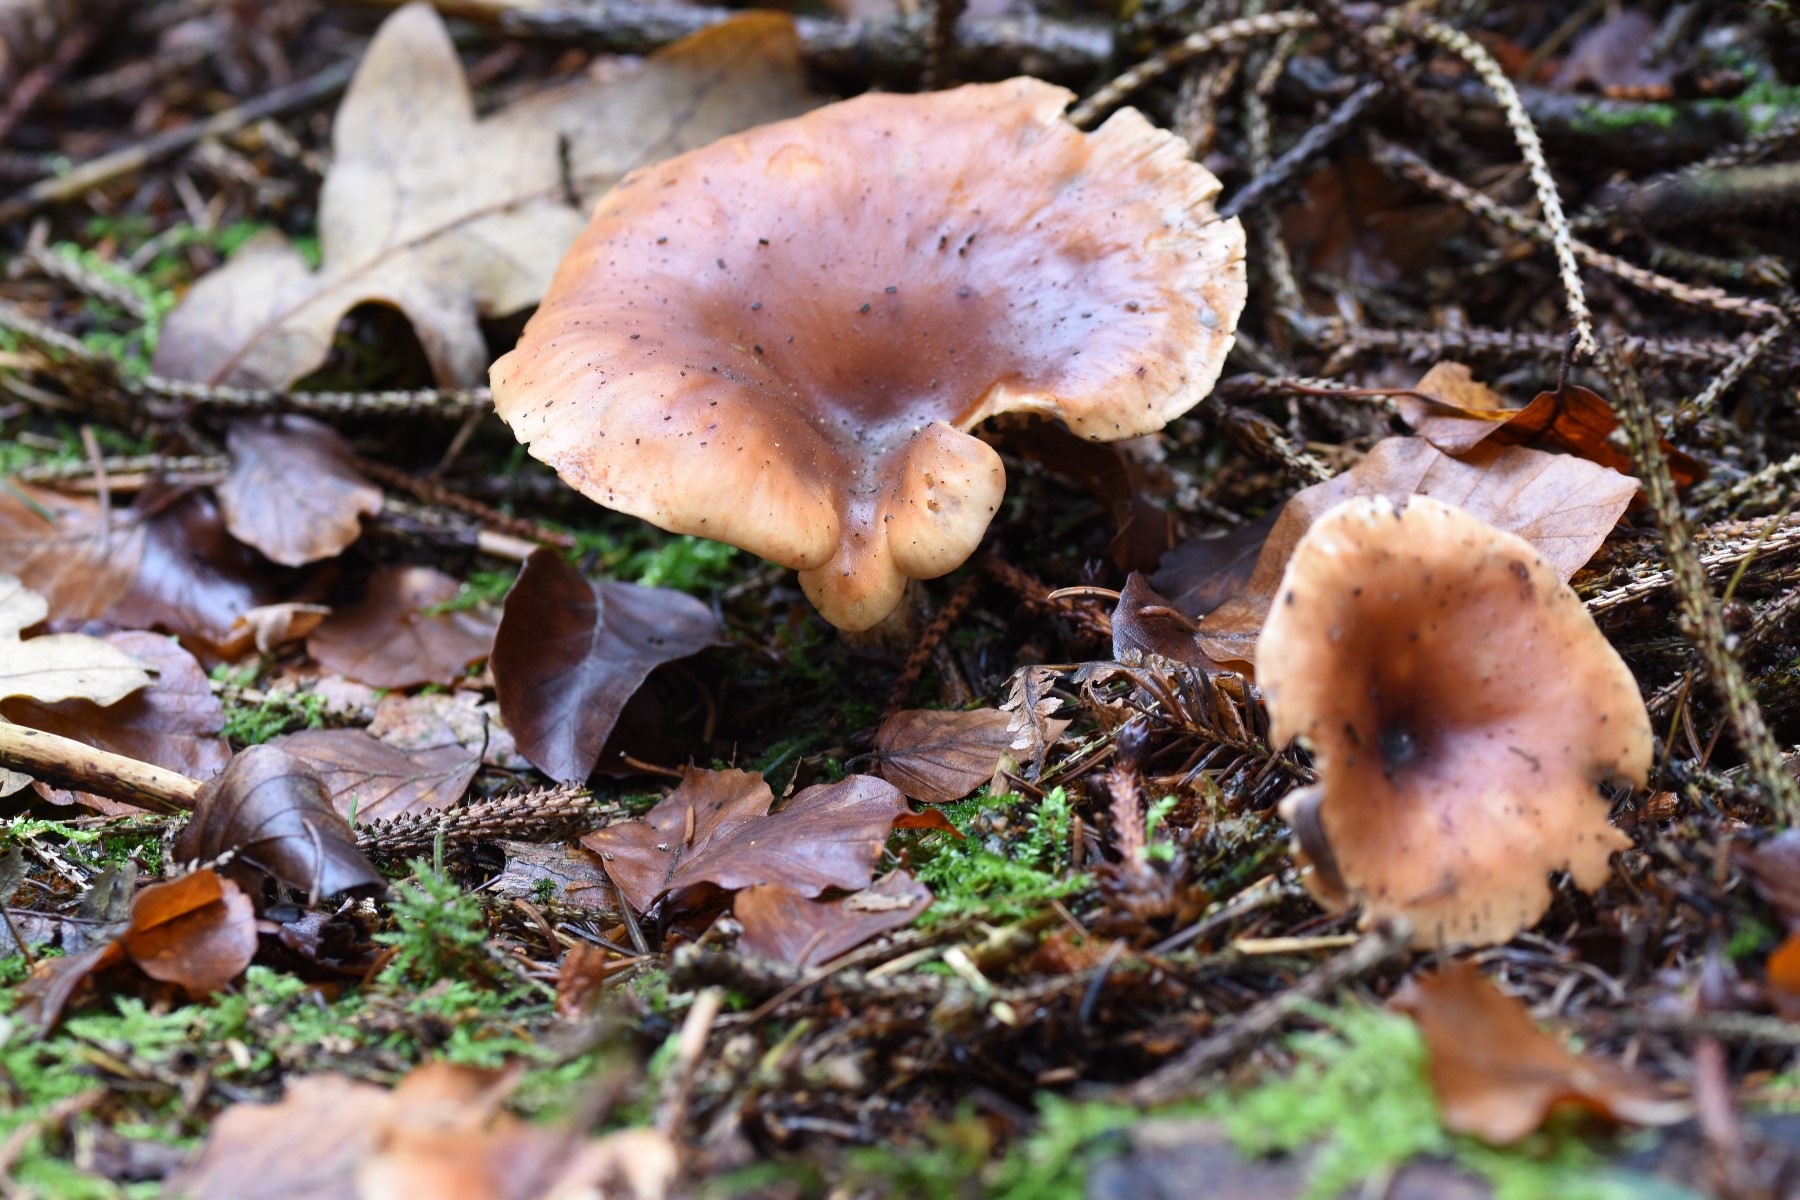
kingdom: Fungi
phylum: Basidiomycota
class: Agaricomycetes
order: Agaricales
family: Tricholomataceae
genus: Paralepista
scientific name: Paralepista flaccida
